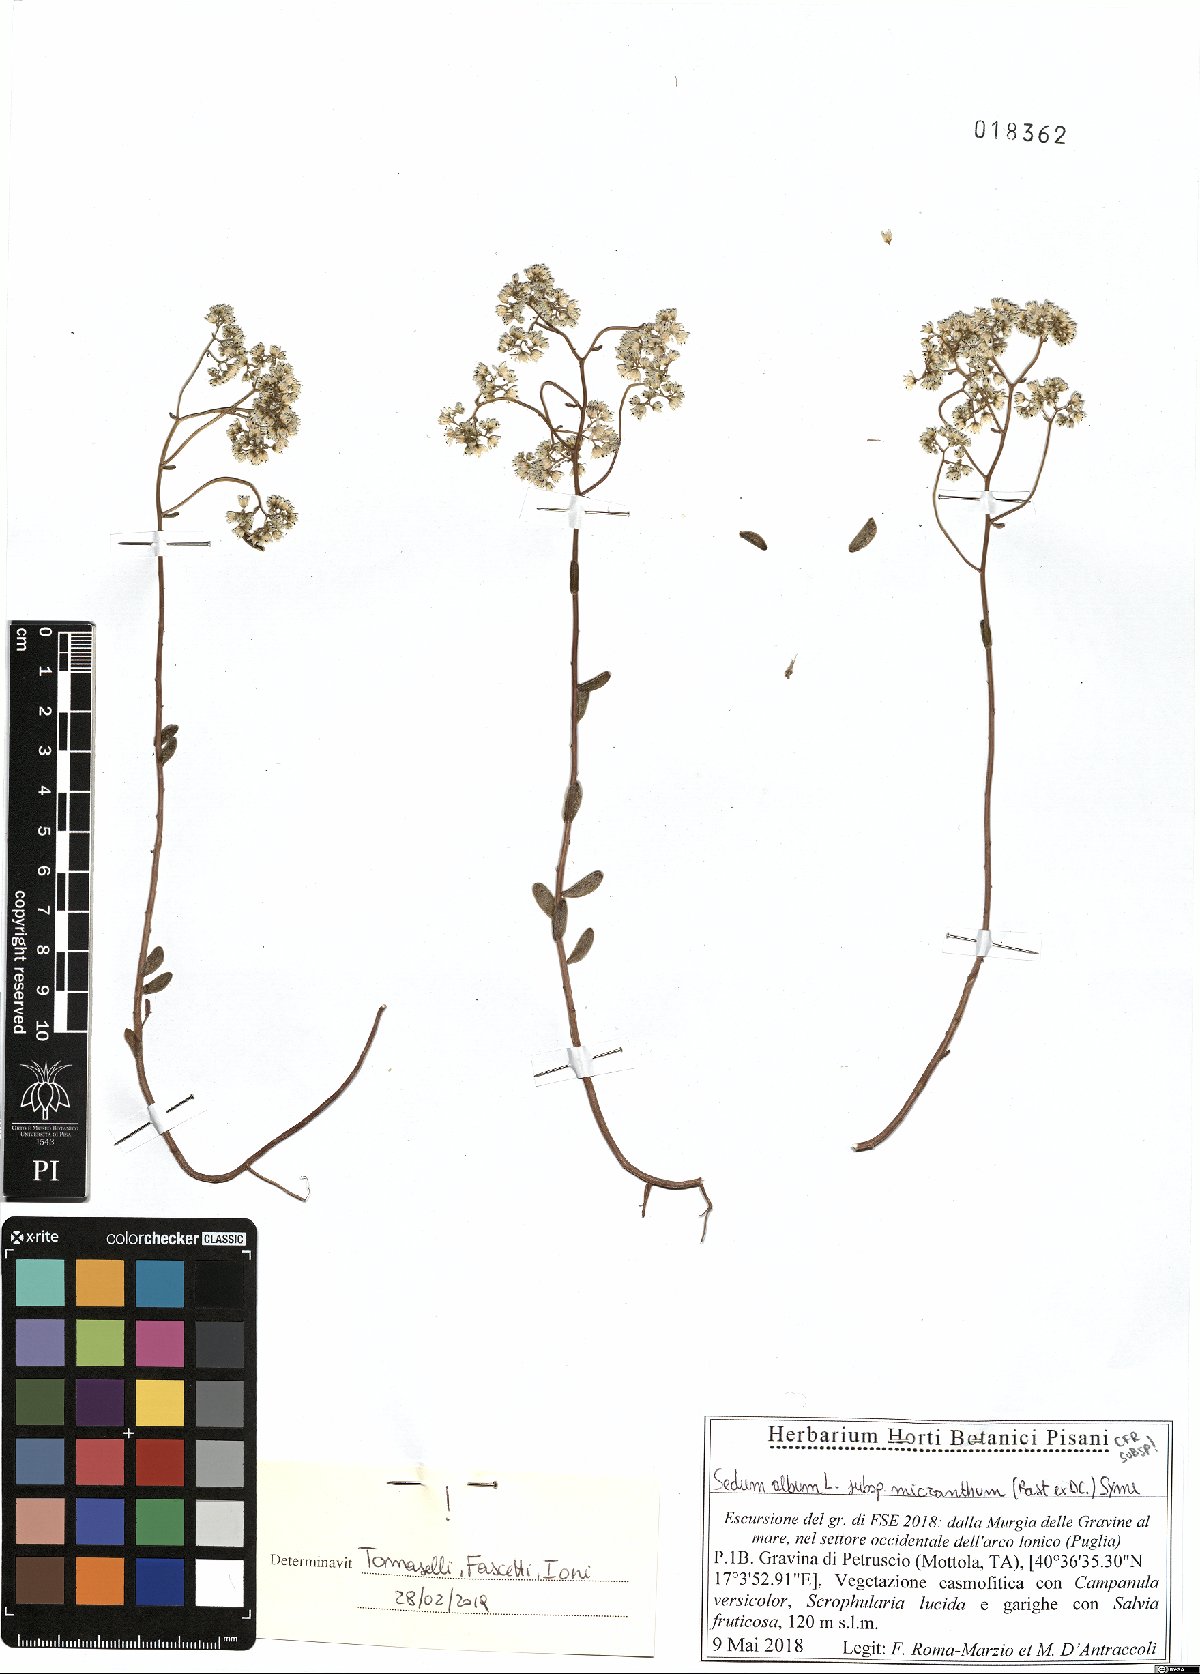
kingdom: Plantae
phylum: Tracheophyta
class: Magnoliopsida
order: Saxifragales
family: Crassulaceae
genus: Sedum
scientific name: Sedum album
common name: White stonecrop
